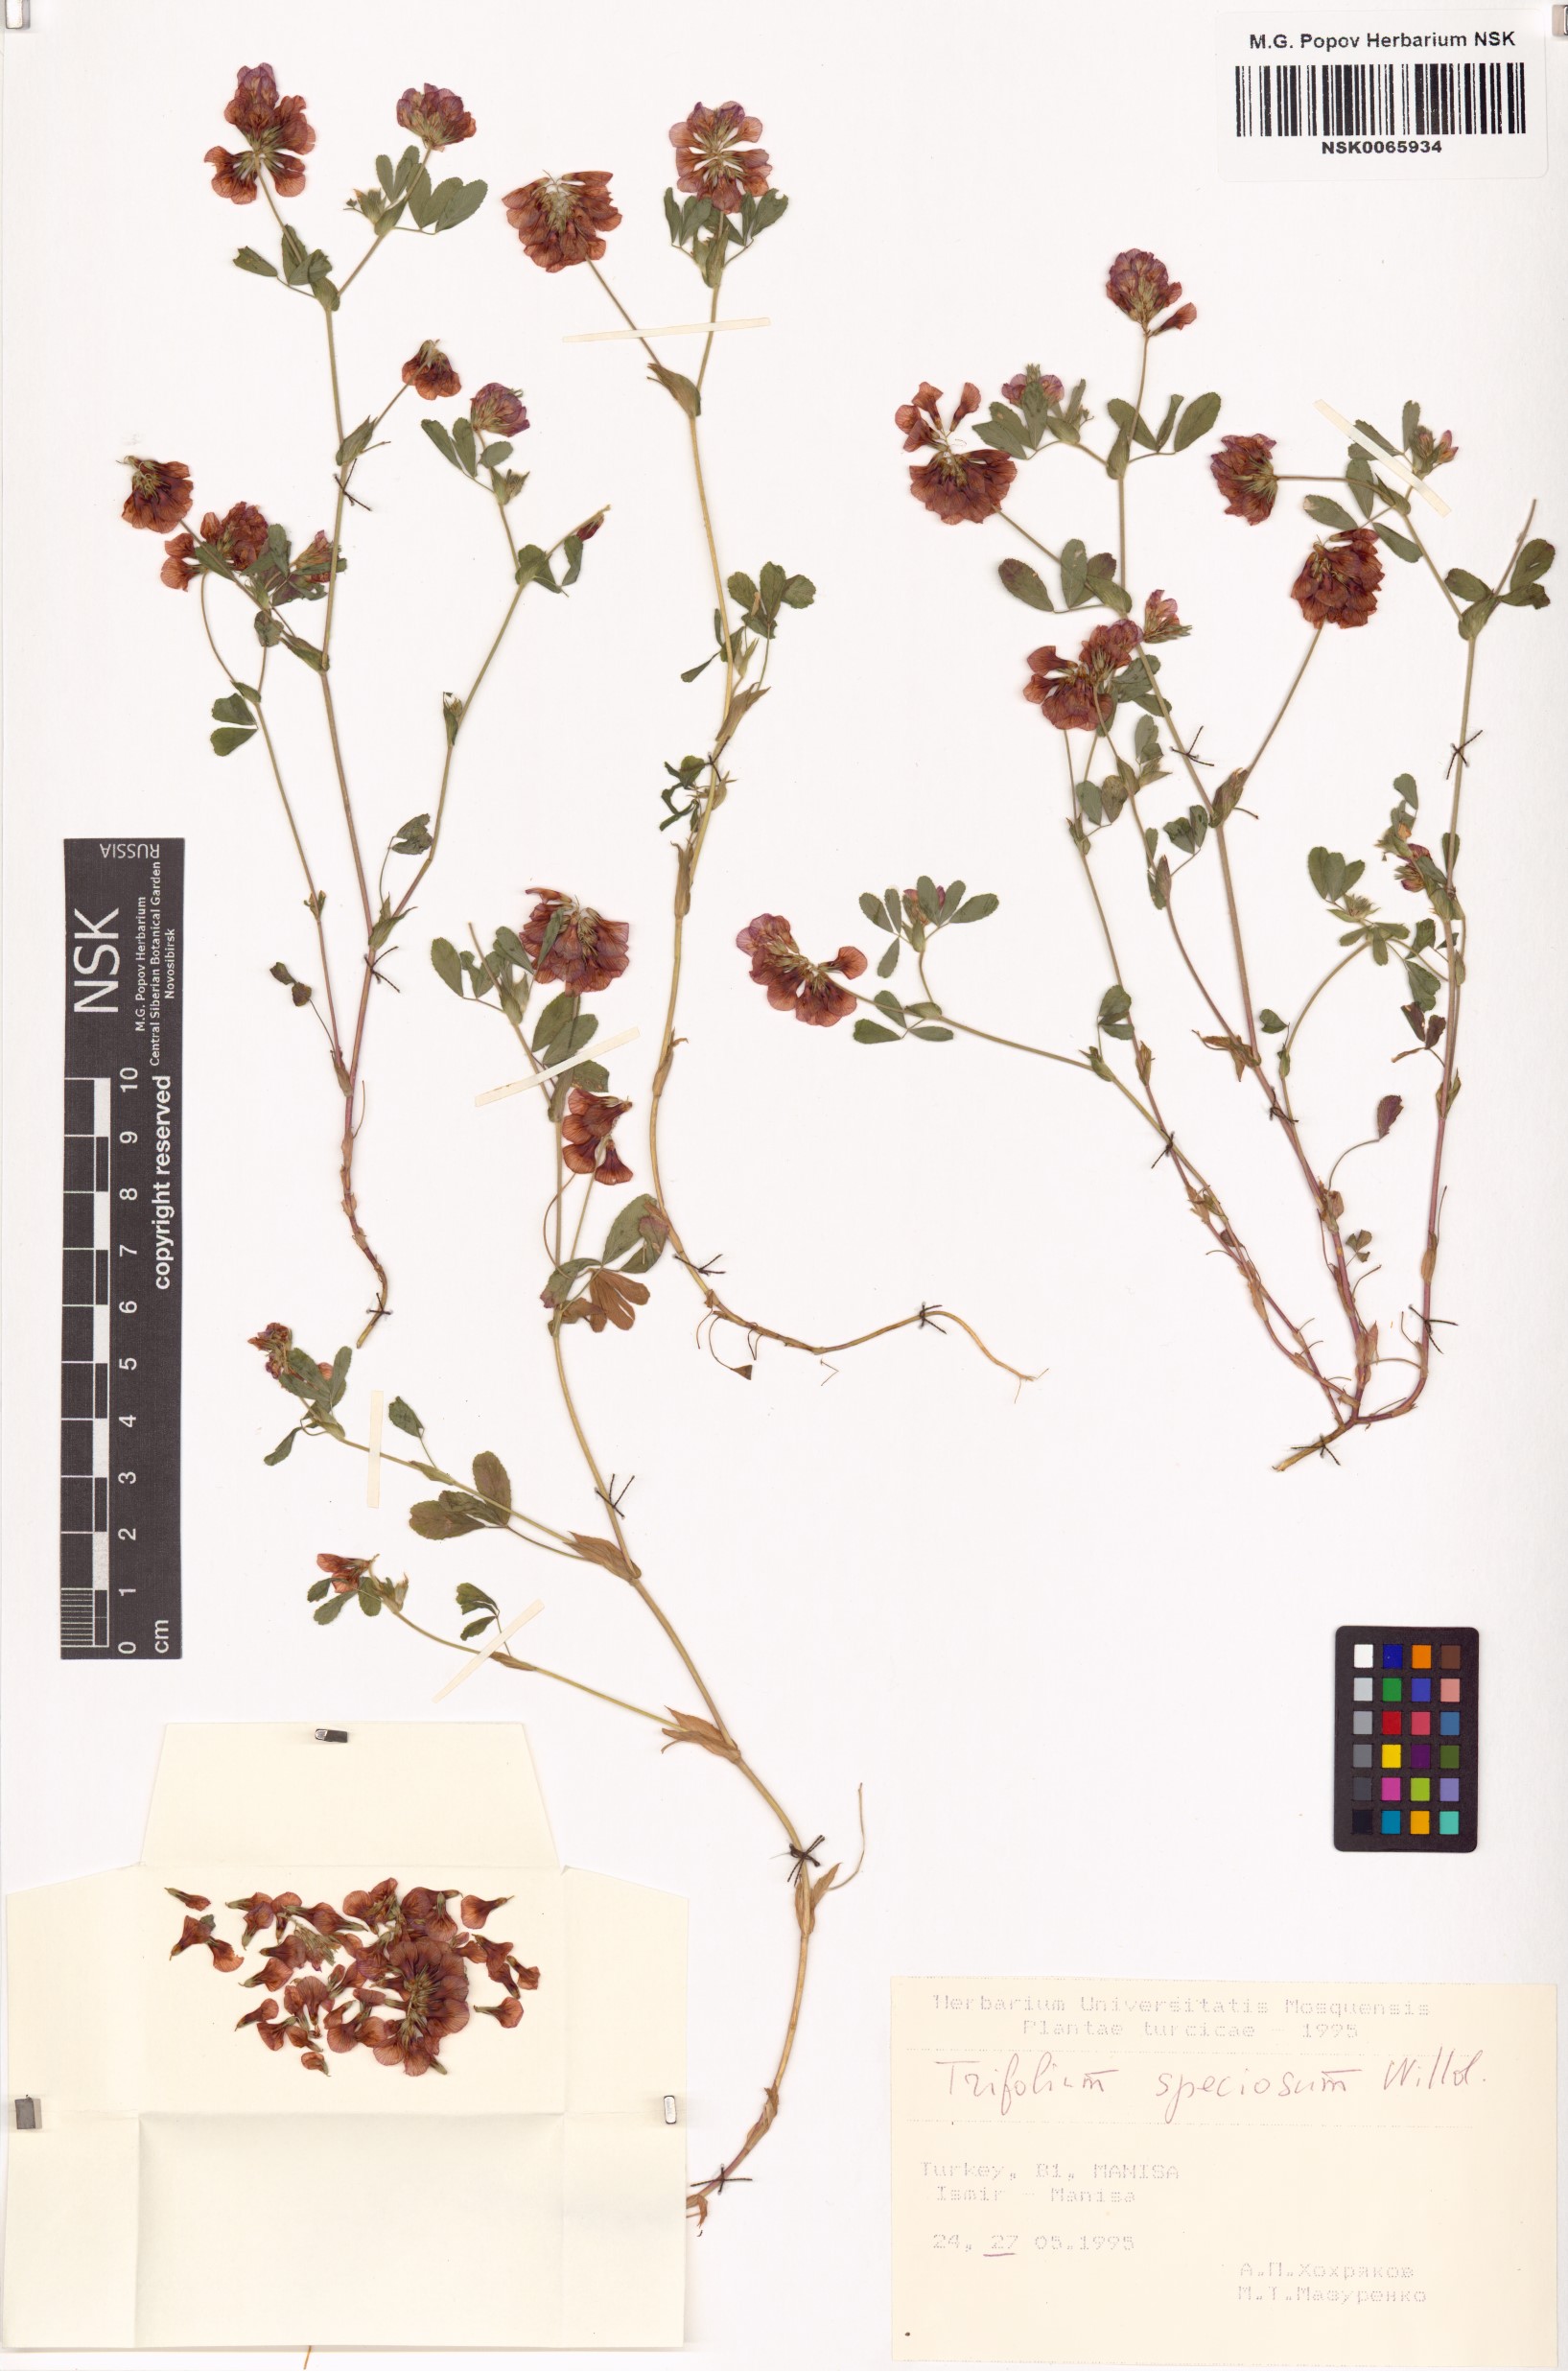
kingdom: Plantae
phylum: Tracheophyta
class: Magnoliopsida
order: Fabales
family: Fabaceae
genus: Trifolium
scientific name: Trifolium grandiflorum
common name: Large-flower hop clover
